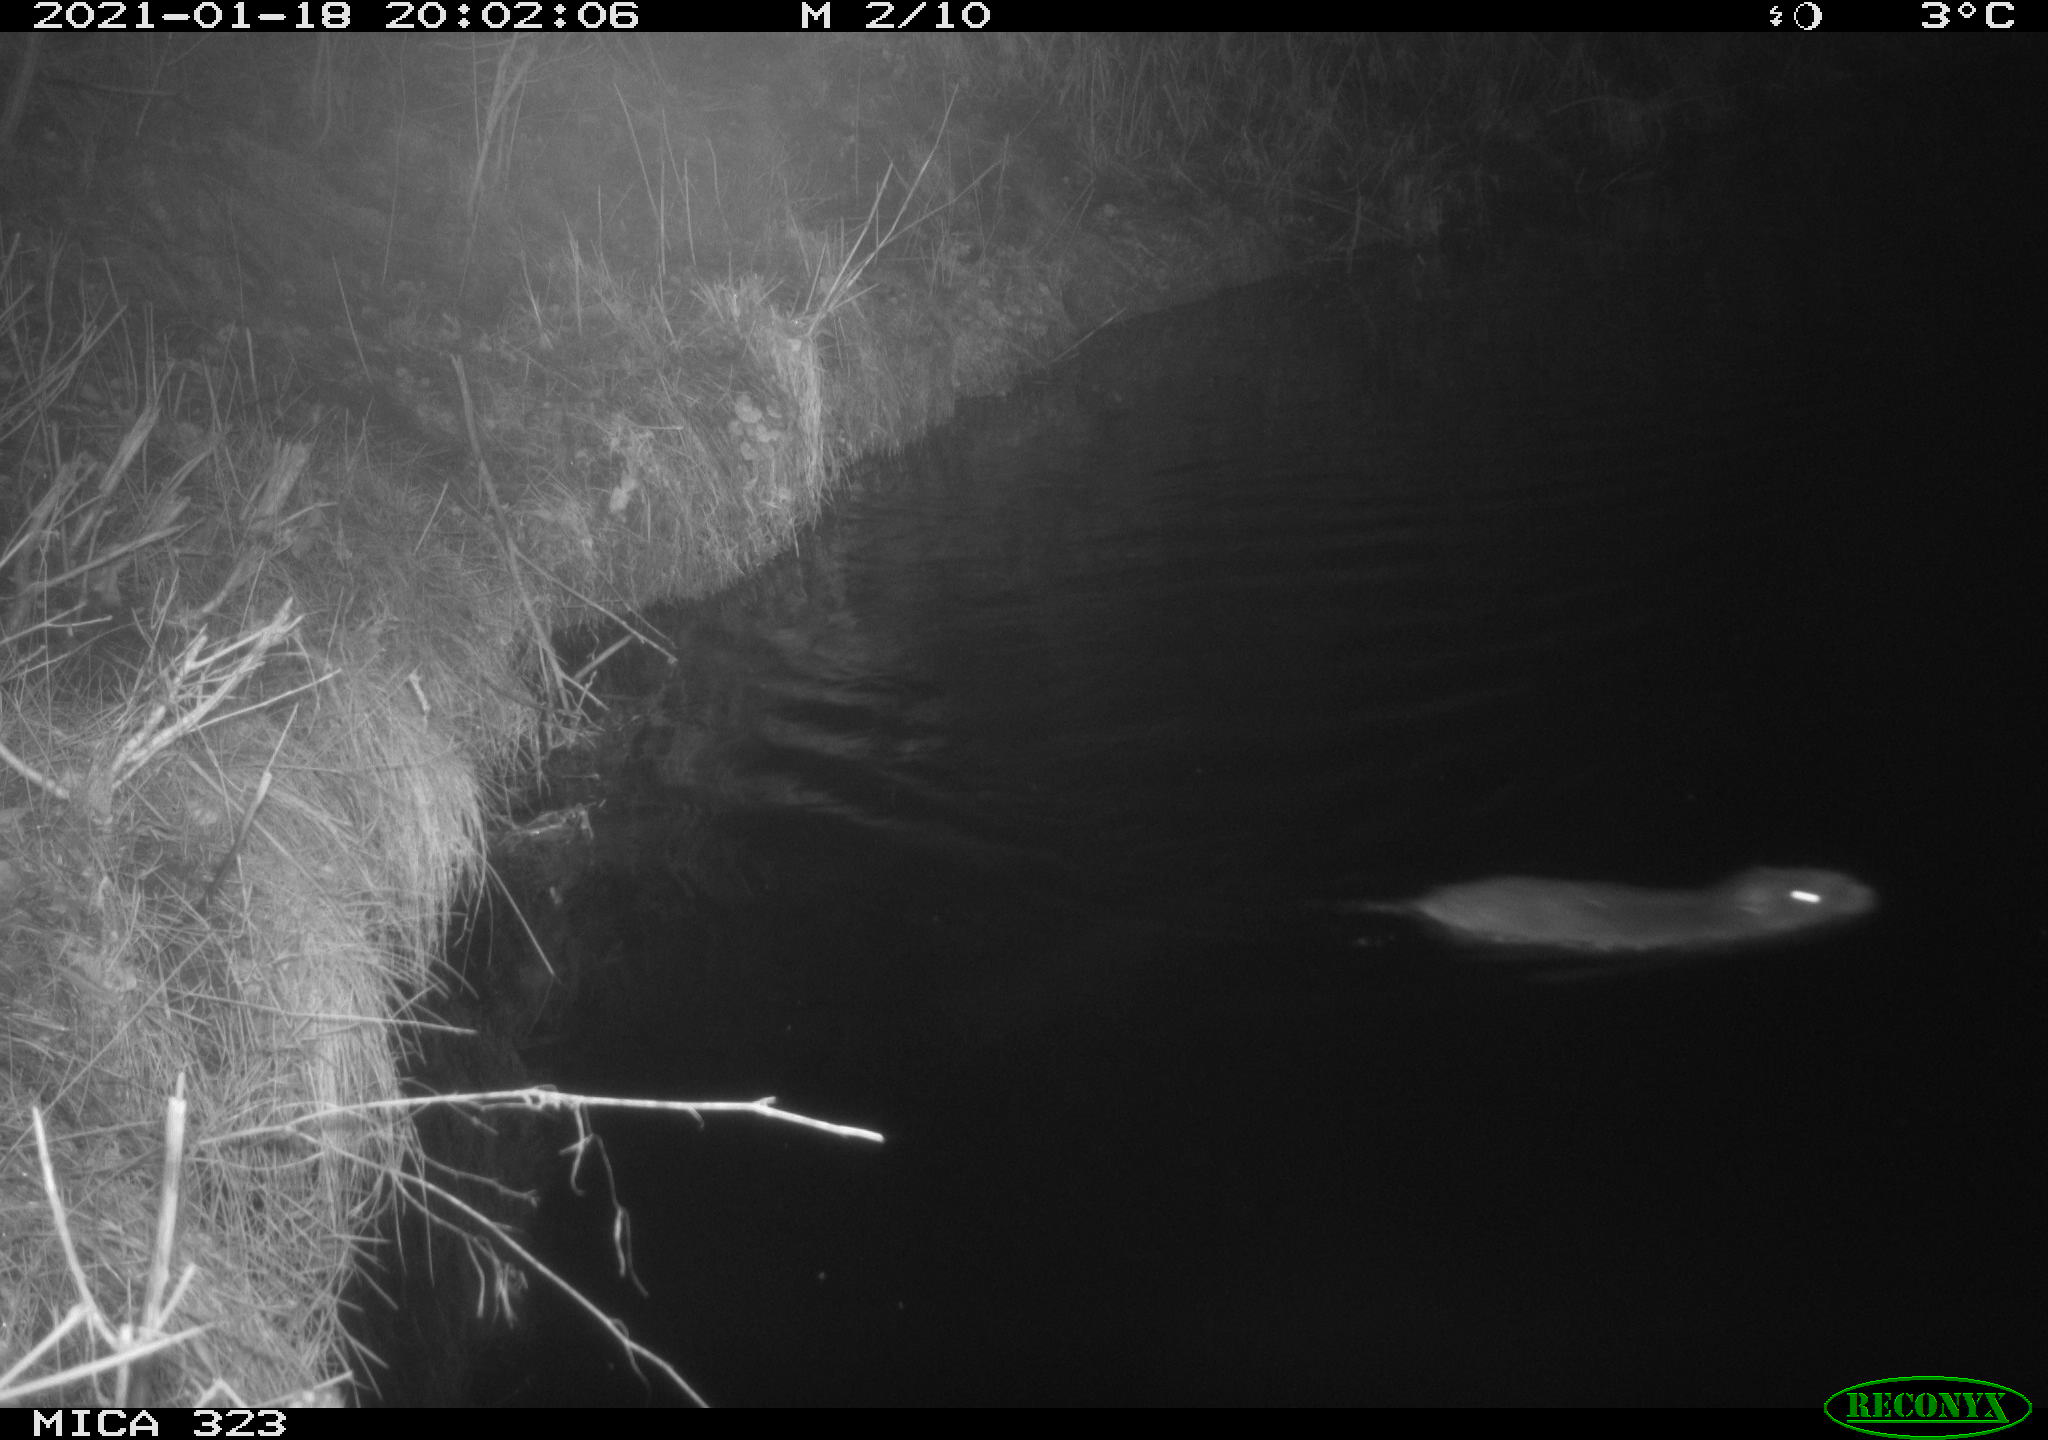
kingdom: Animalia
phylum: Chordata
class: Mammalia
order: Rodentia
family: Myocastoridae
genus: Myocastor
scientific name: Myocastor coypus
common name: Coypu
